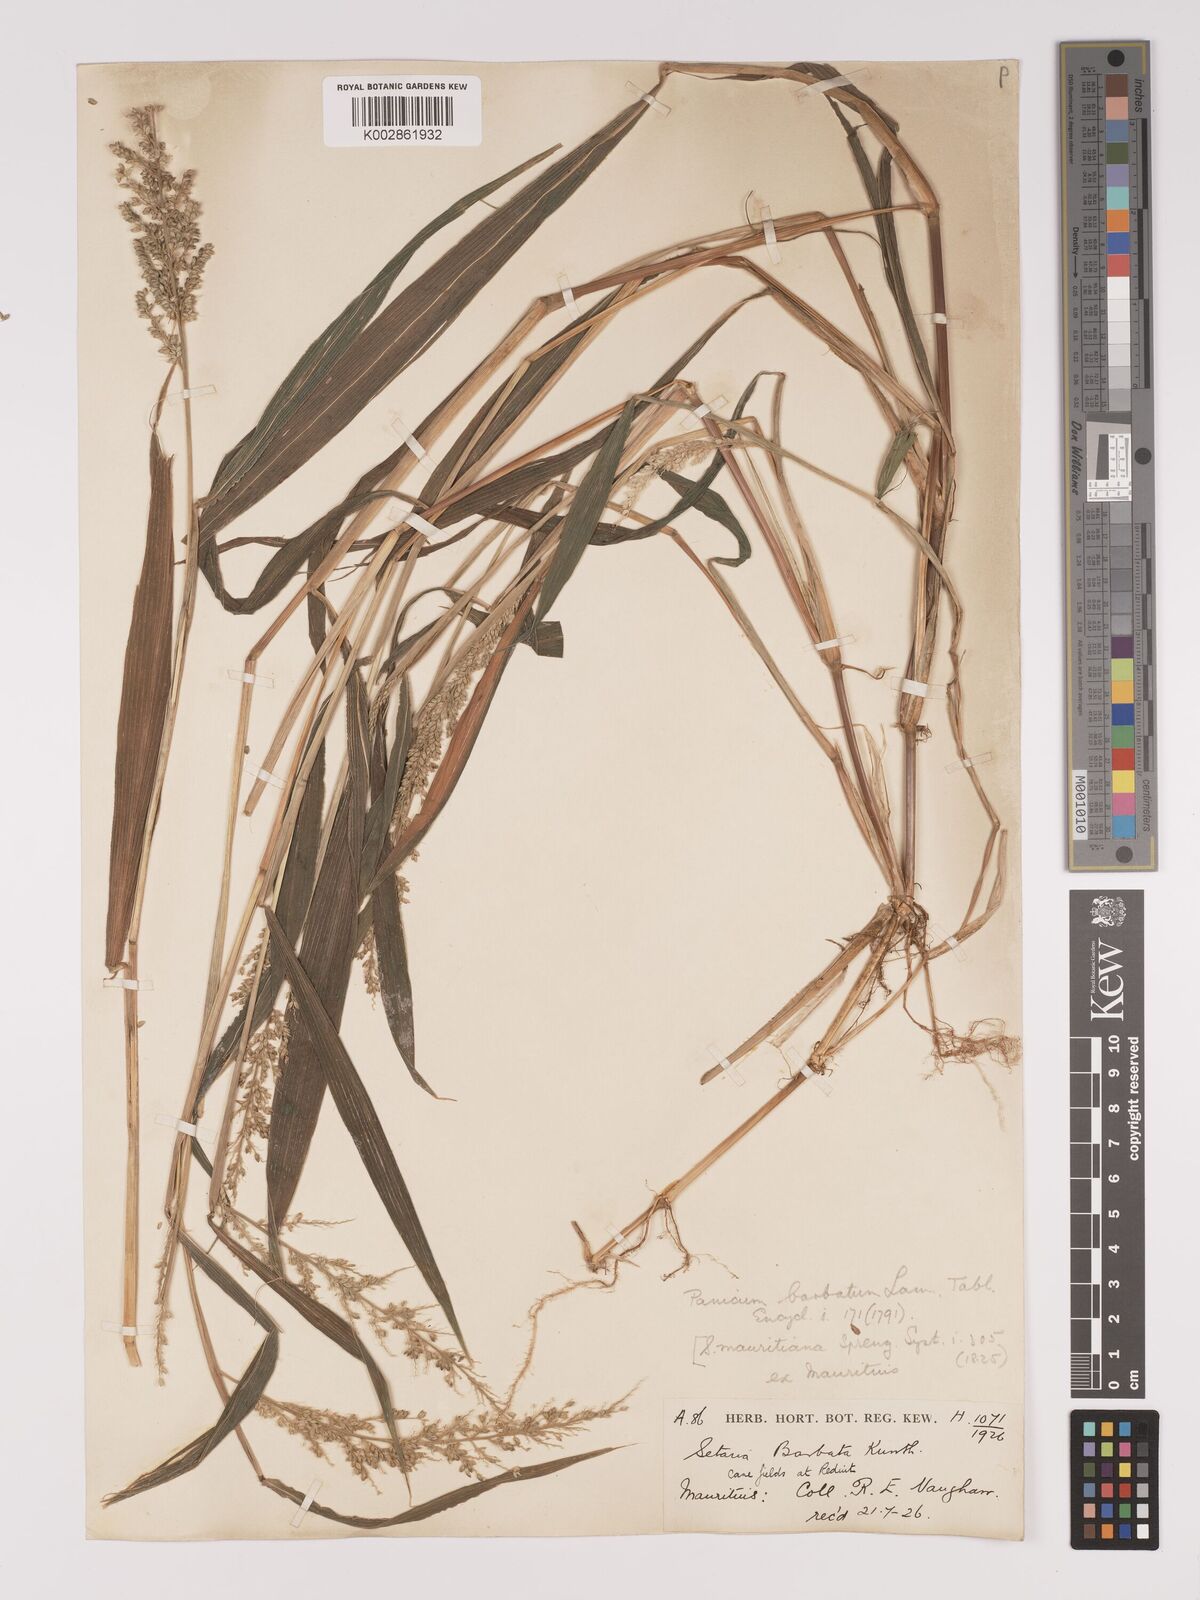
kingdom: Plantae
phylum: Tracheophyta
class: Liliopsida
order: Poales
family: Poaceae
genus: Setaria
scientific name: Setaria barbata
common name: East indian bristlegrass
